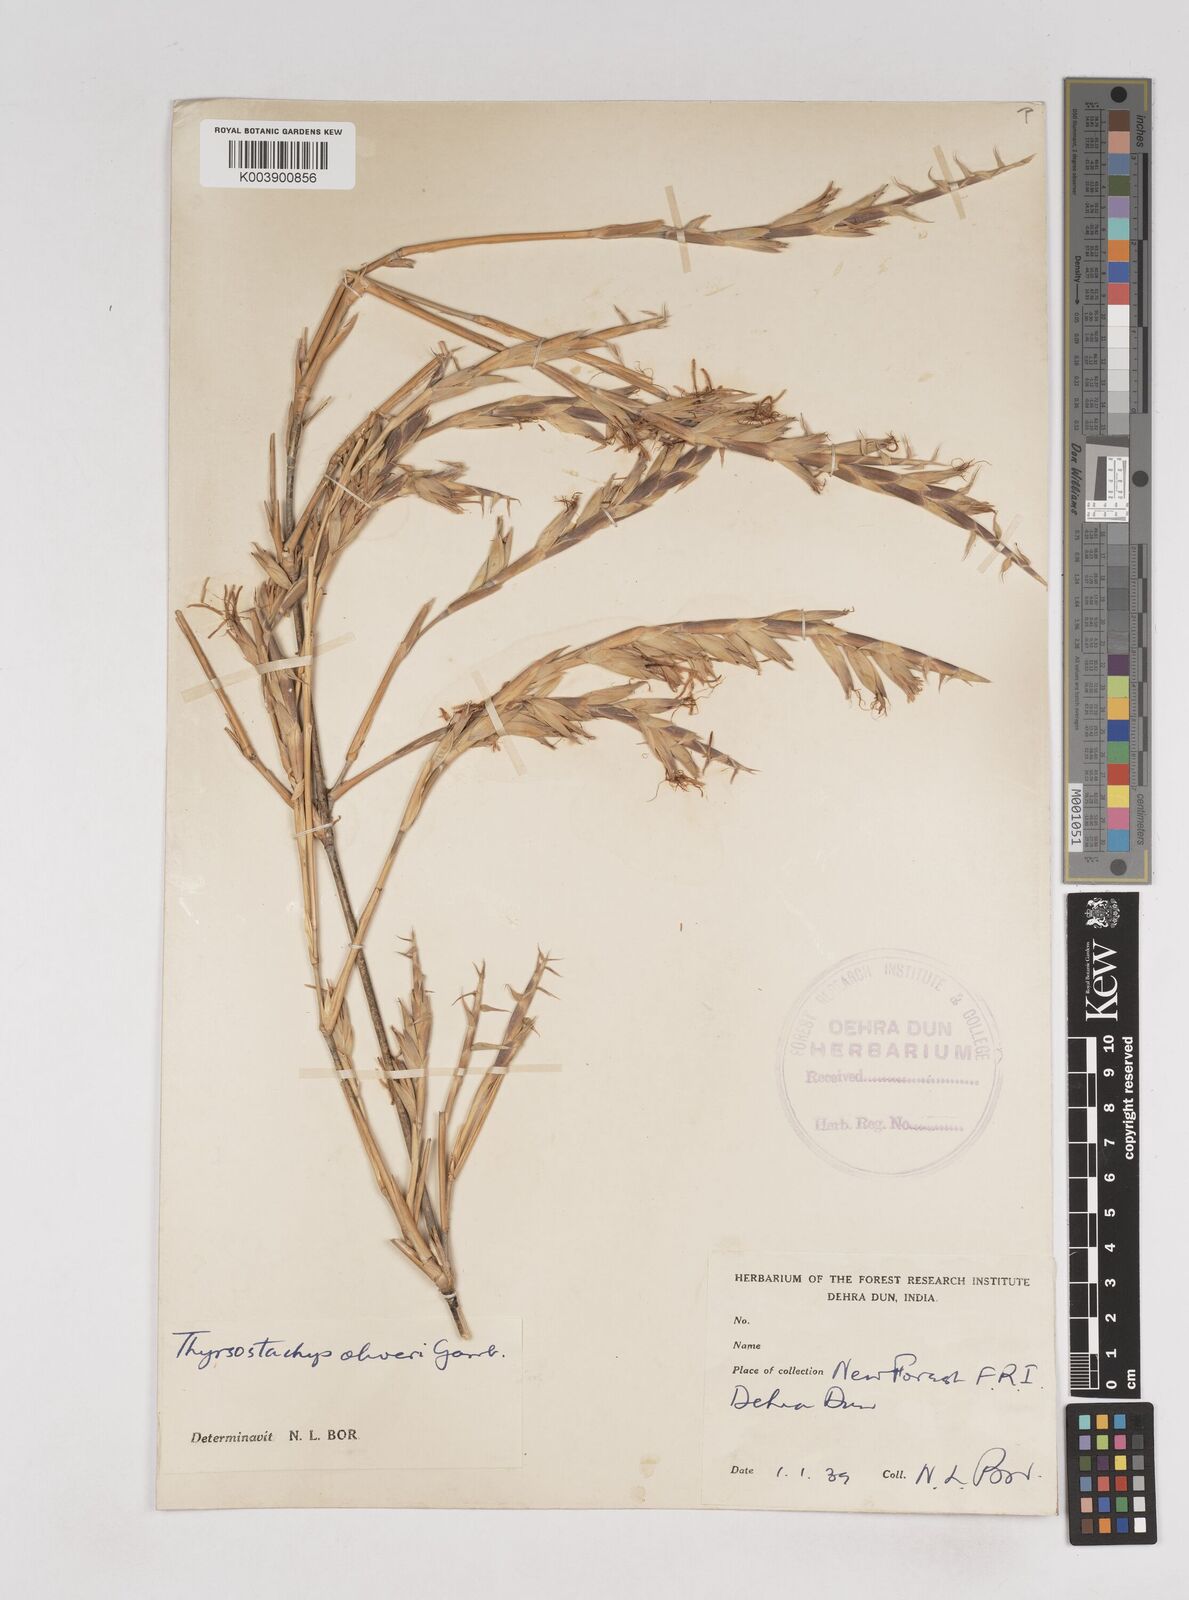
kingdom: Plantae
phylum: Tracheophyta
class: Liliopsida
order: Poales
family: Poaceae
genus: Thyrsostachys
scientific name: Thyrsostachys oliveri
